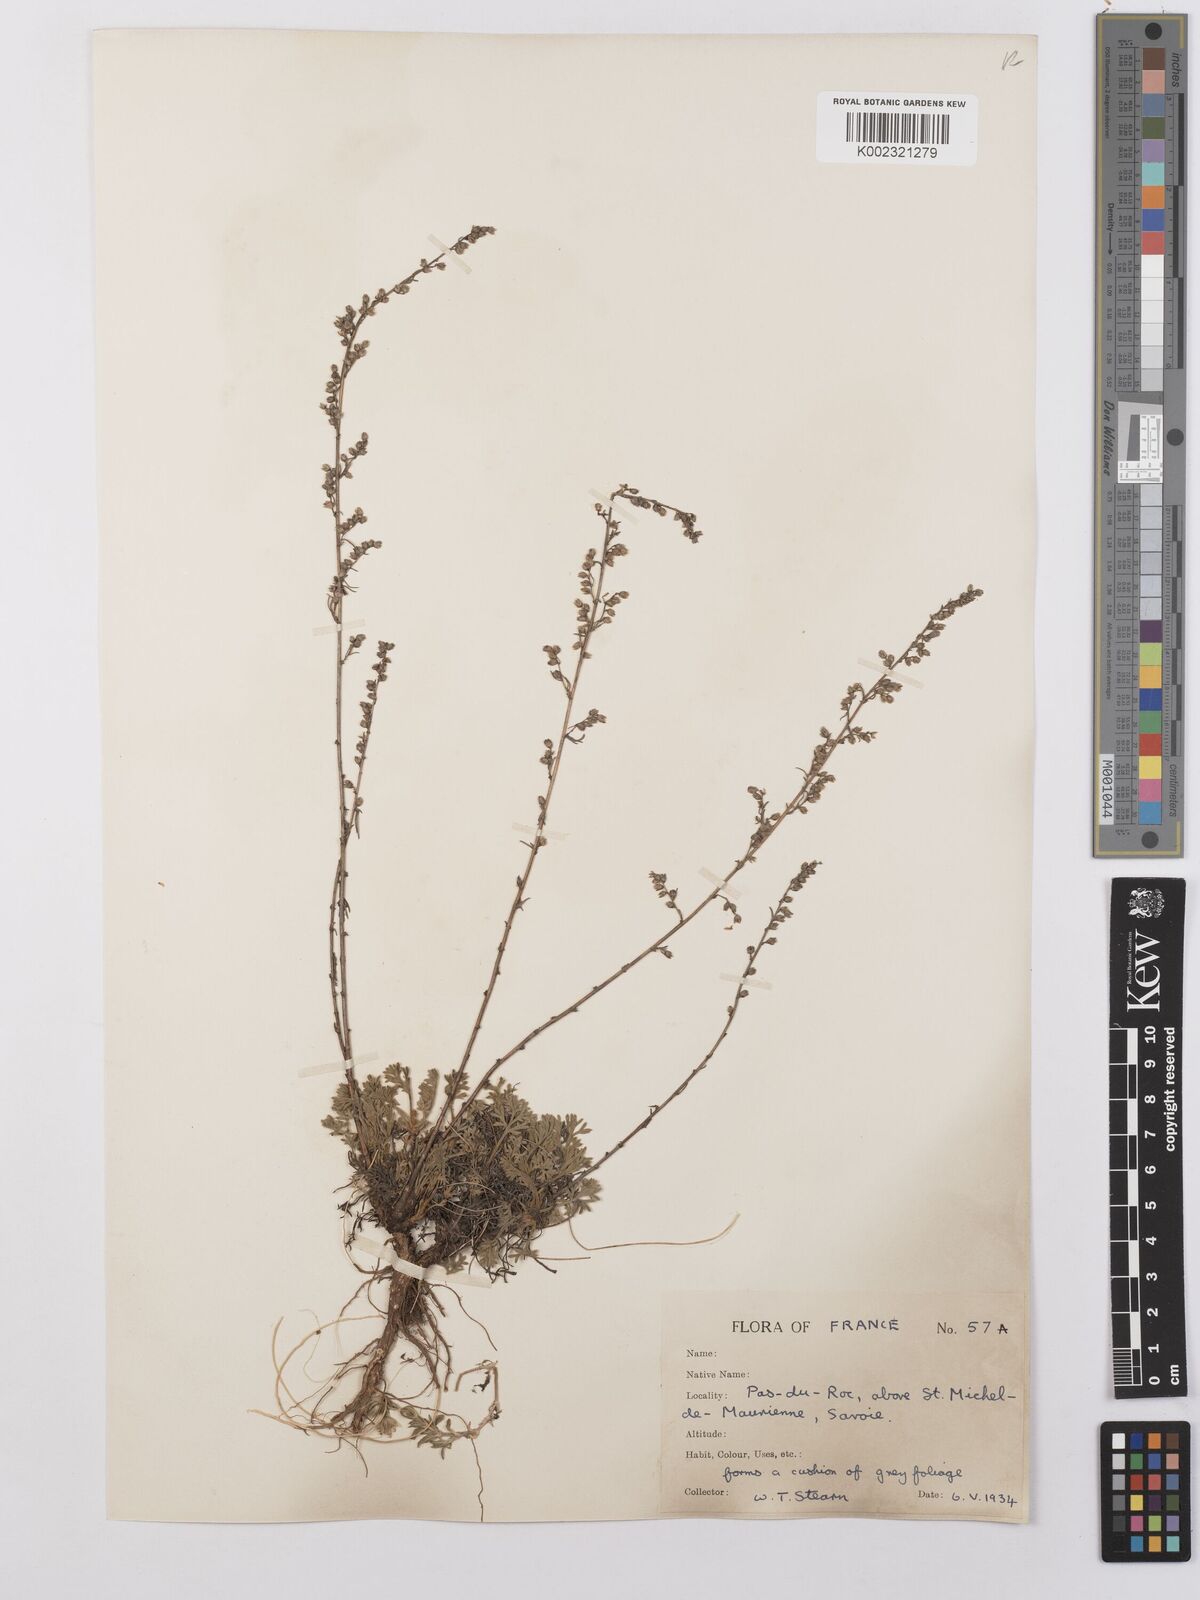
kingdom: Plantae
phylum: Tracheophyta
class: Magnoliopsida
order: Asterales
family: Asteraceae
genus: Artemisia
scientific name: Artemisia vallesiaca
